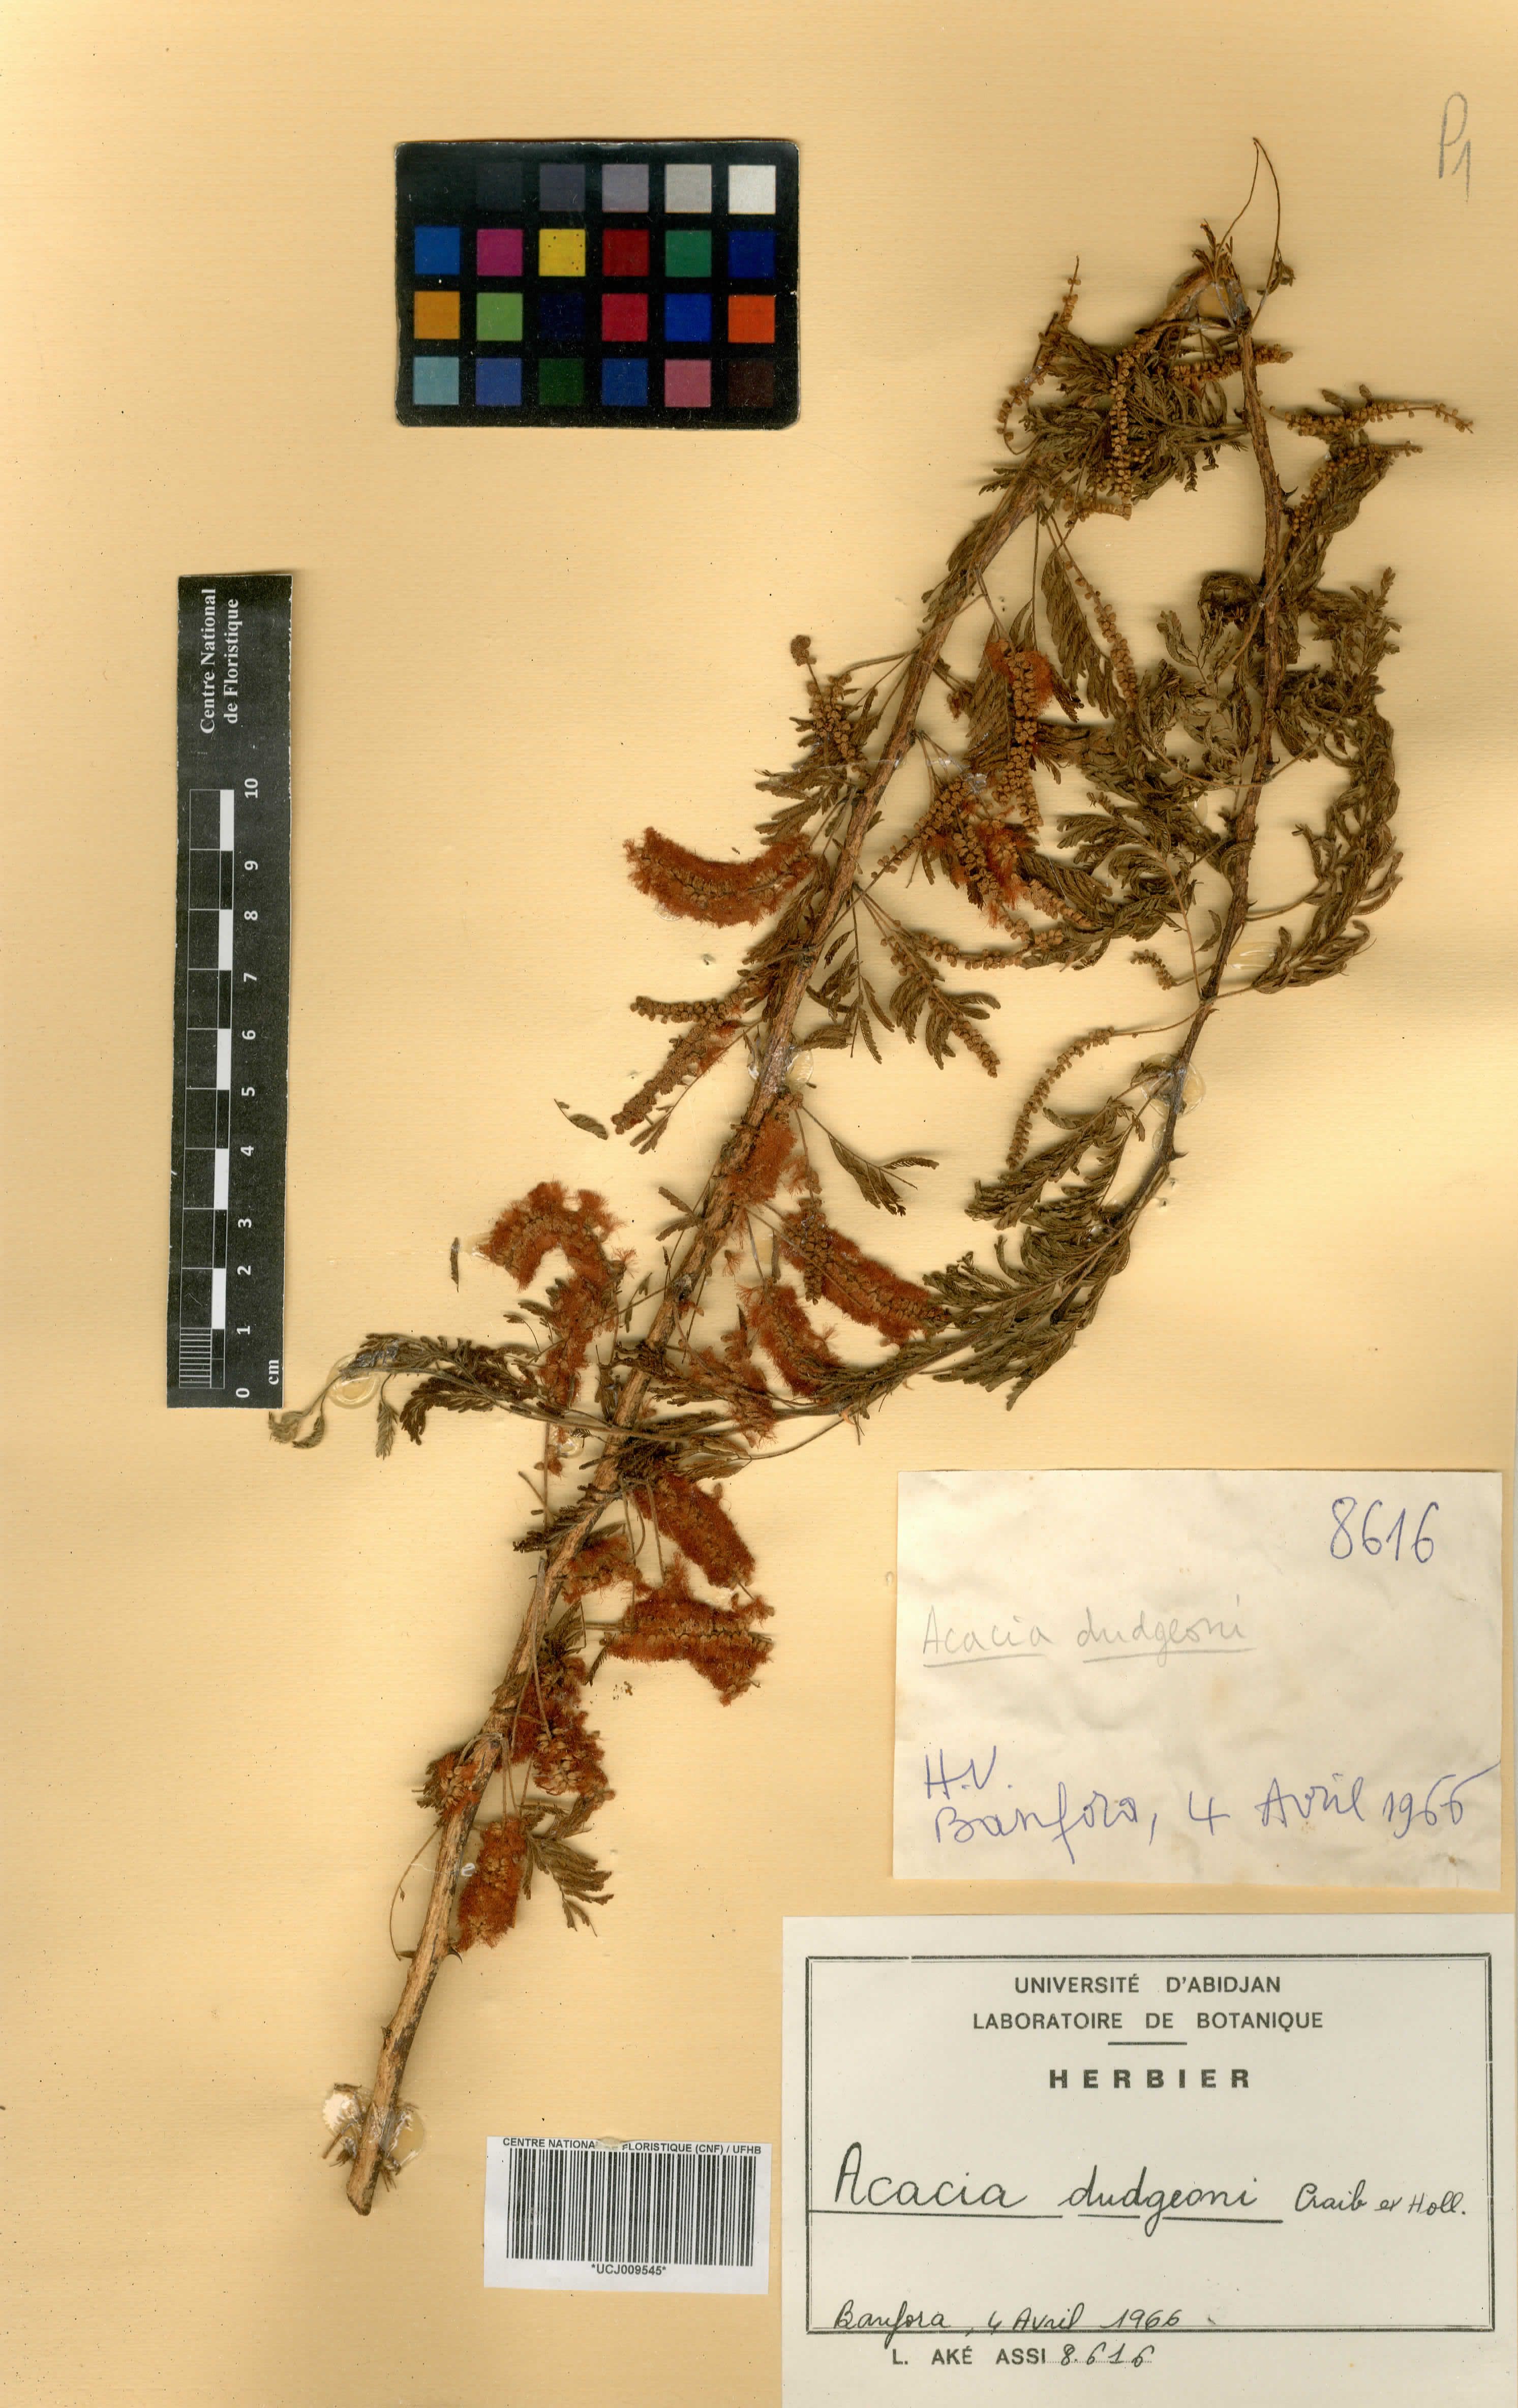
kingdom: Plantae
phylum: Tracheophyta
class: Magnoliopsida
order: Fabales
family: Fabaceae
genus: Senegalia
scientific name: Senegalia dudgeonii
